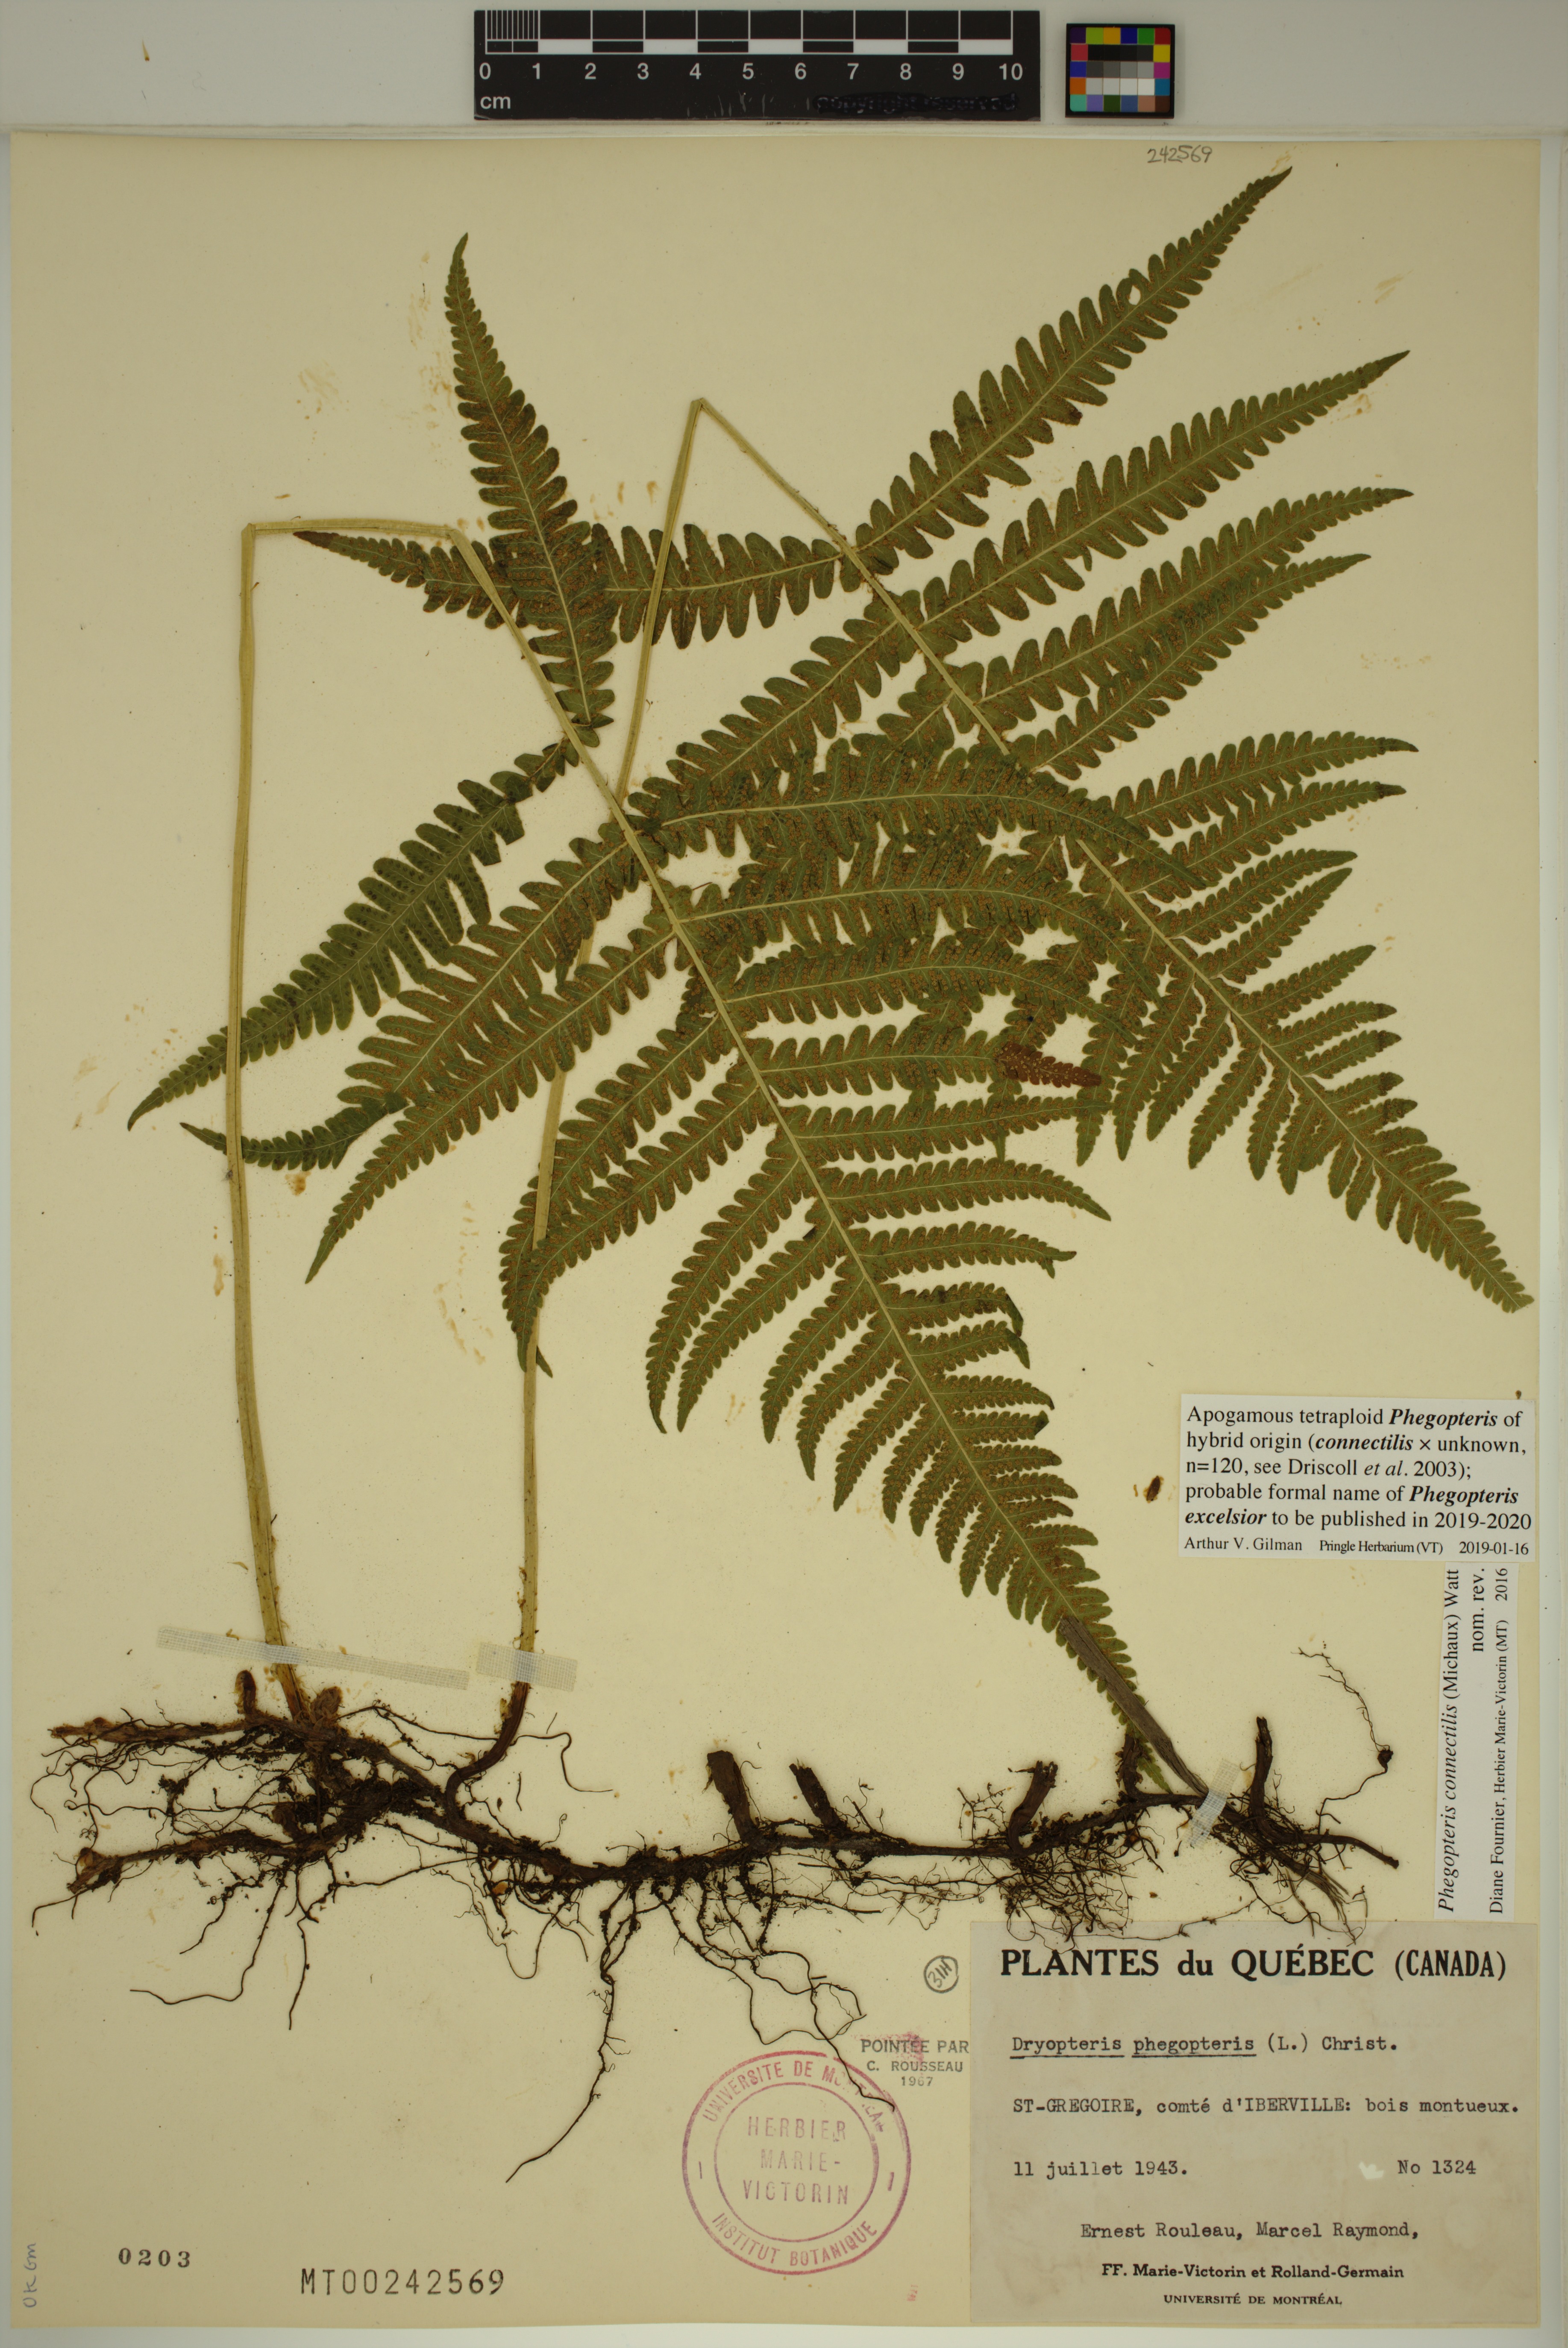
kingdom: Plantae
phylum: Tracheophyta
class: Polypodiopsida
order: Polypodiales
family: Thelypteridaceae
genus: Phegopteris
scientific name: Phegopteris
